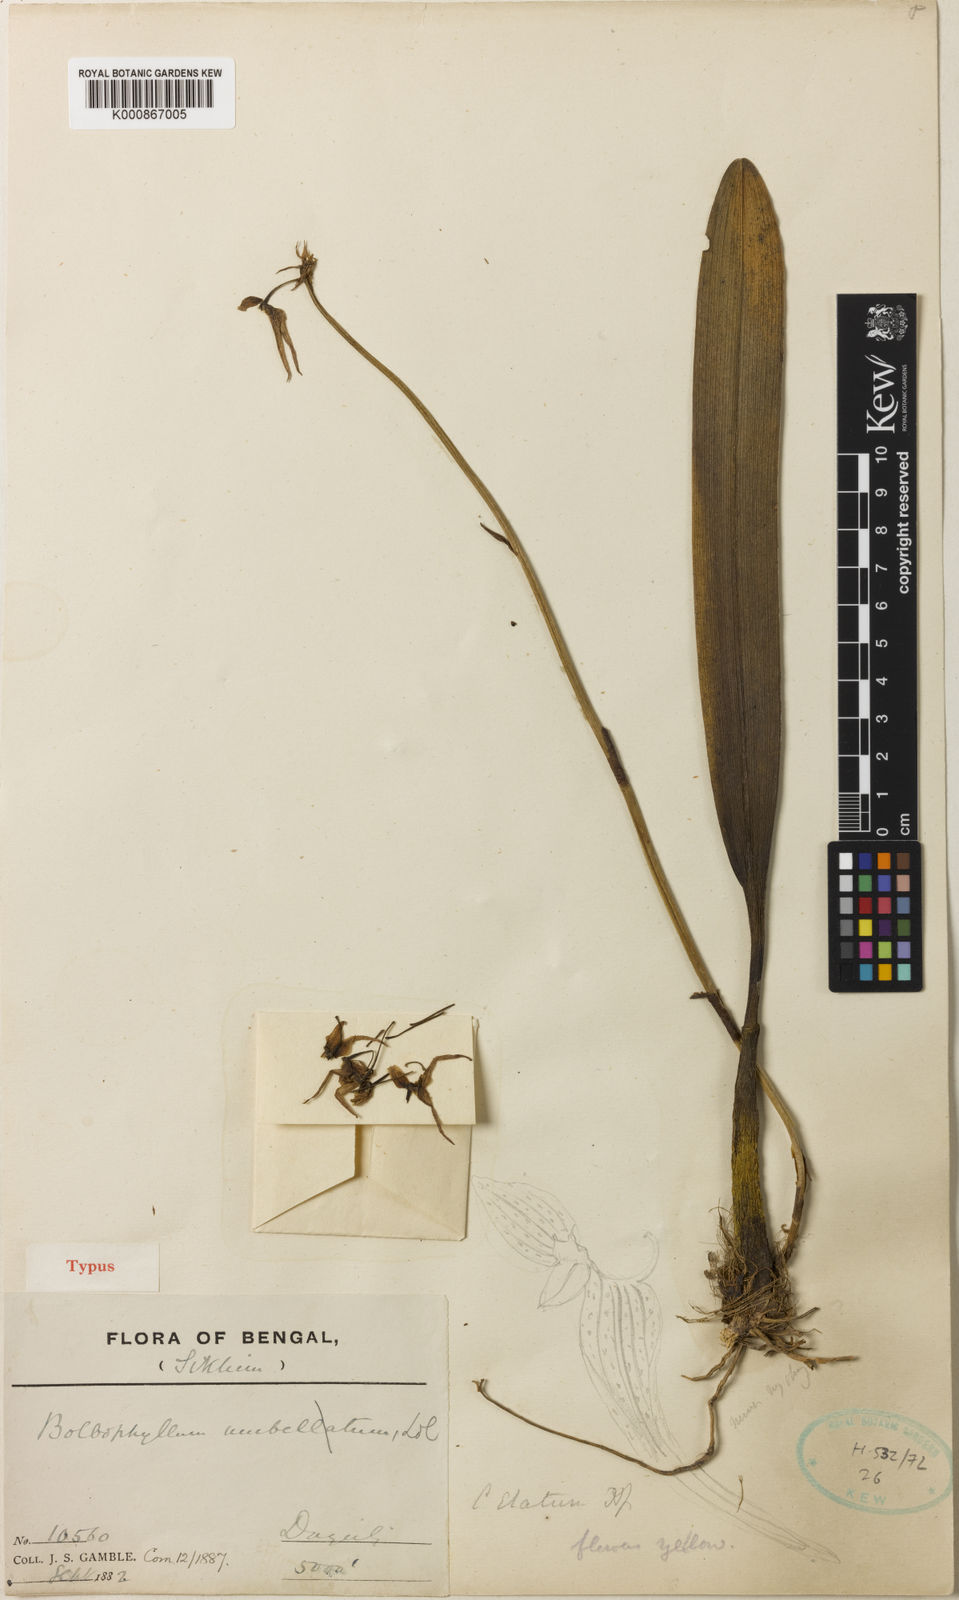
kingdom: Plantae
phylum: Tracheophyta
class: Liliopsida
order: Asparagales
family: Orchidaceae
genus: Bulbophyllum
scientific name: Bulbophyllum elatum
